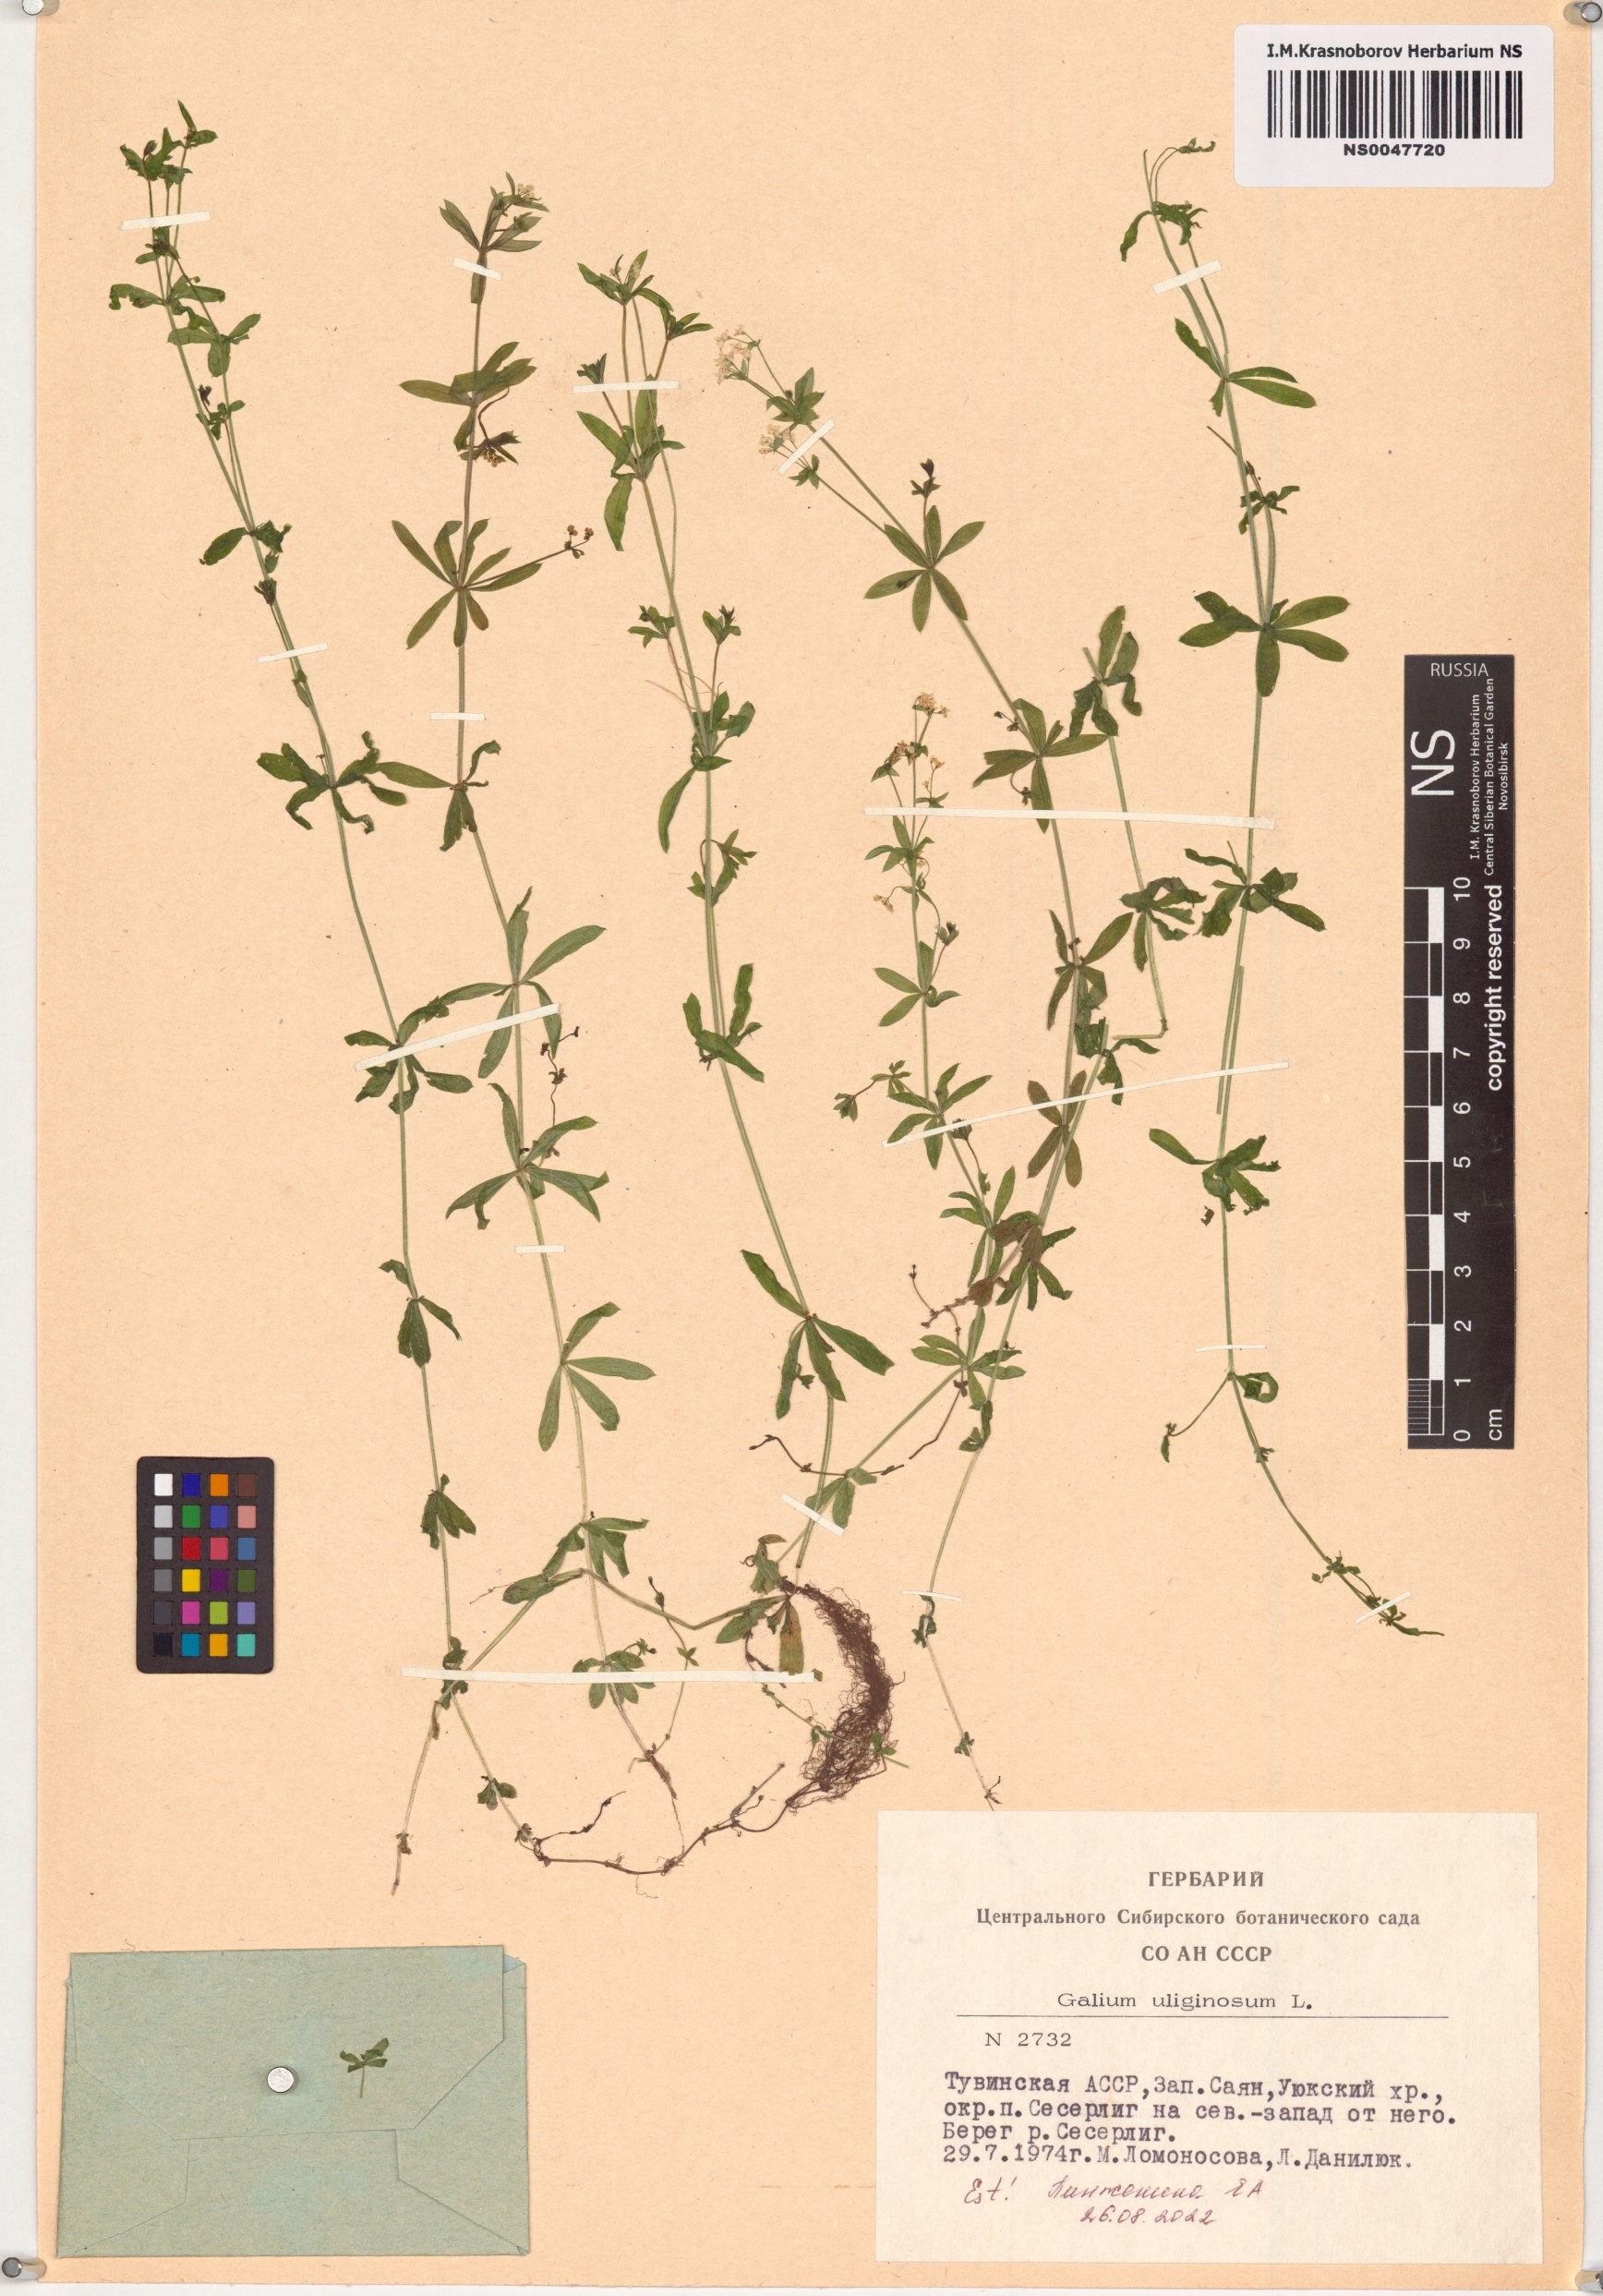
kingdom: Plantae
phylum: Tracheophyta
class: Magnoliopsida
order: Gentianales
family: Rubiaceae
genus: Galium
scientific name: Galium uliginosum
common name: Fen bedstraw
